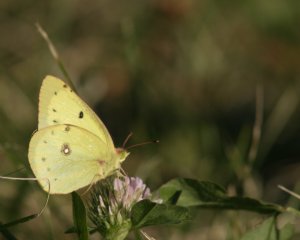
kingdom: Animalia
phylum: Arthropoda
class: Insecta
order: Lepidoptera
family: Pieridae
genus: Colias
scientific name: Colias philodice
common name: Clouded Sulphur
